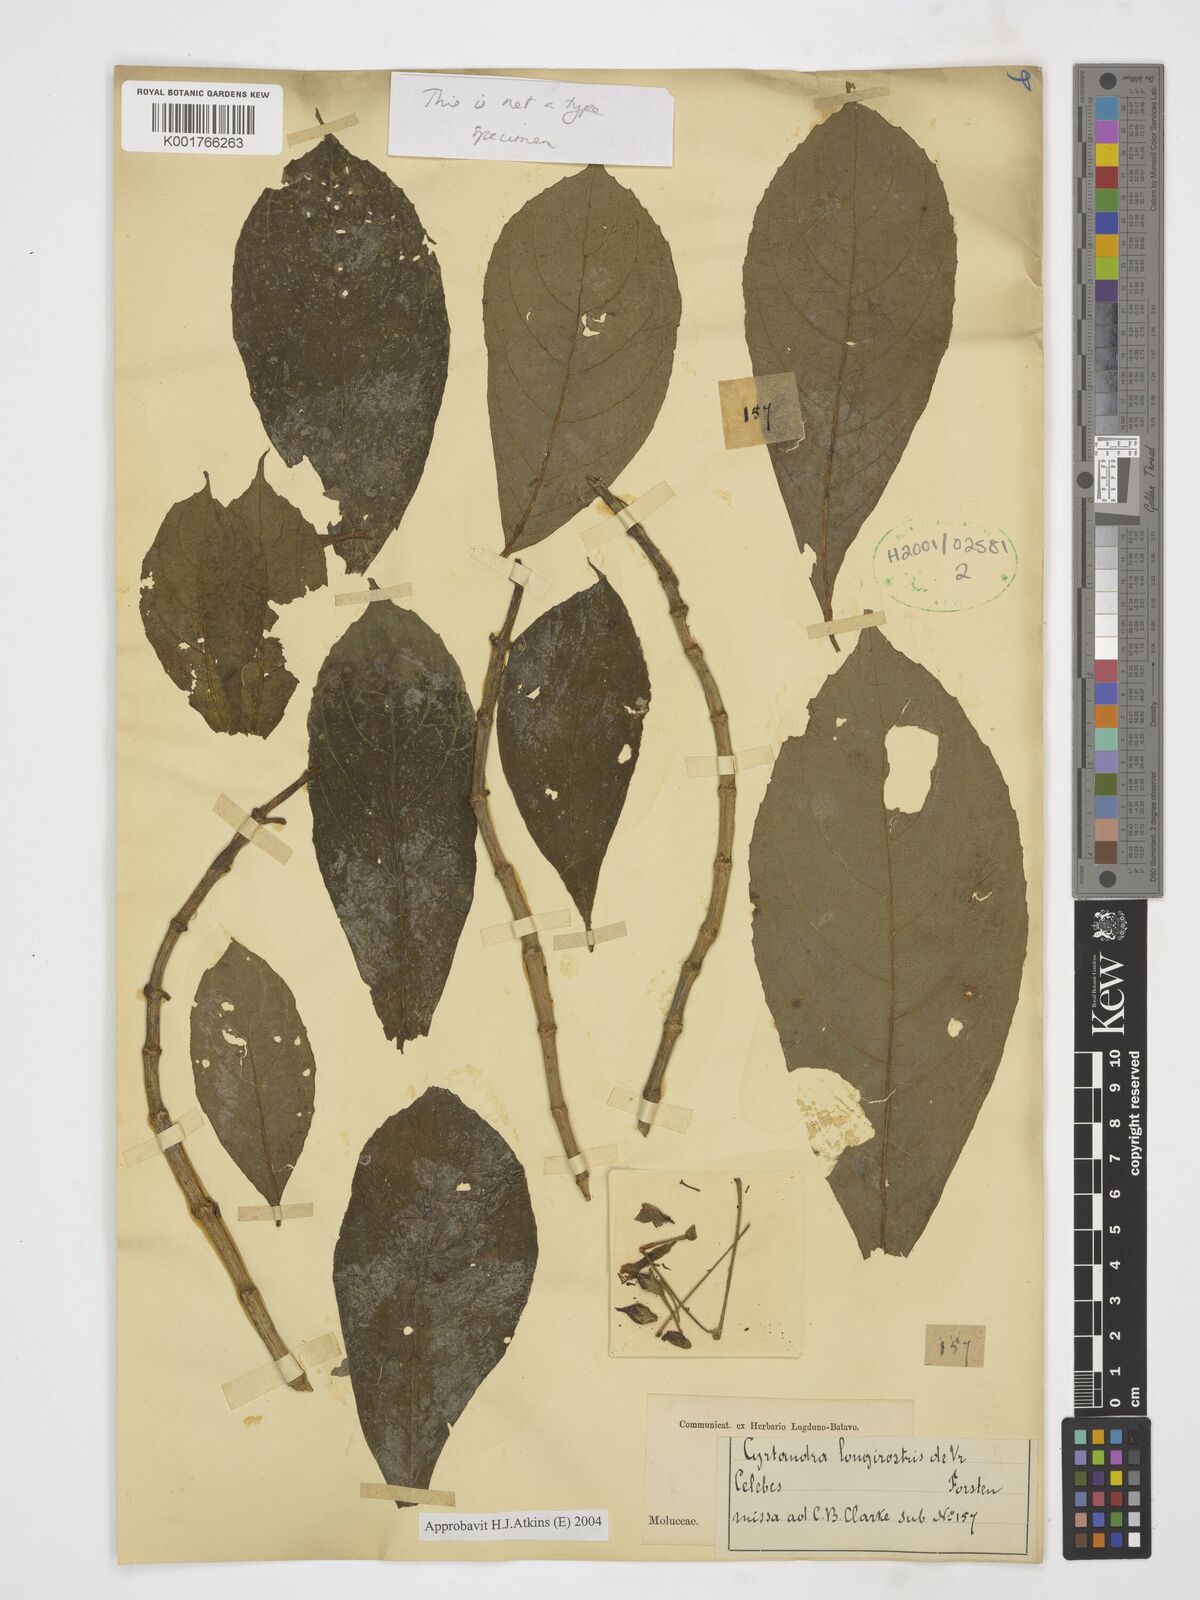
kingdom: Plantae
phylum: Tracheophyta
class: Magnoliopsida
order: Lamiales
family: Gesneriaceae
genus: Cyrtandra
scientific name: Cyrtandra longirostris
